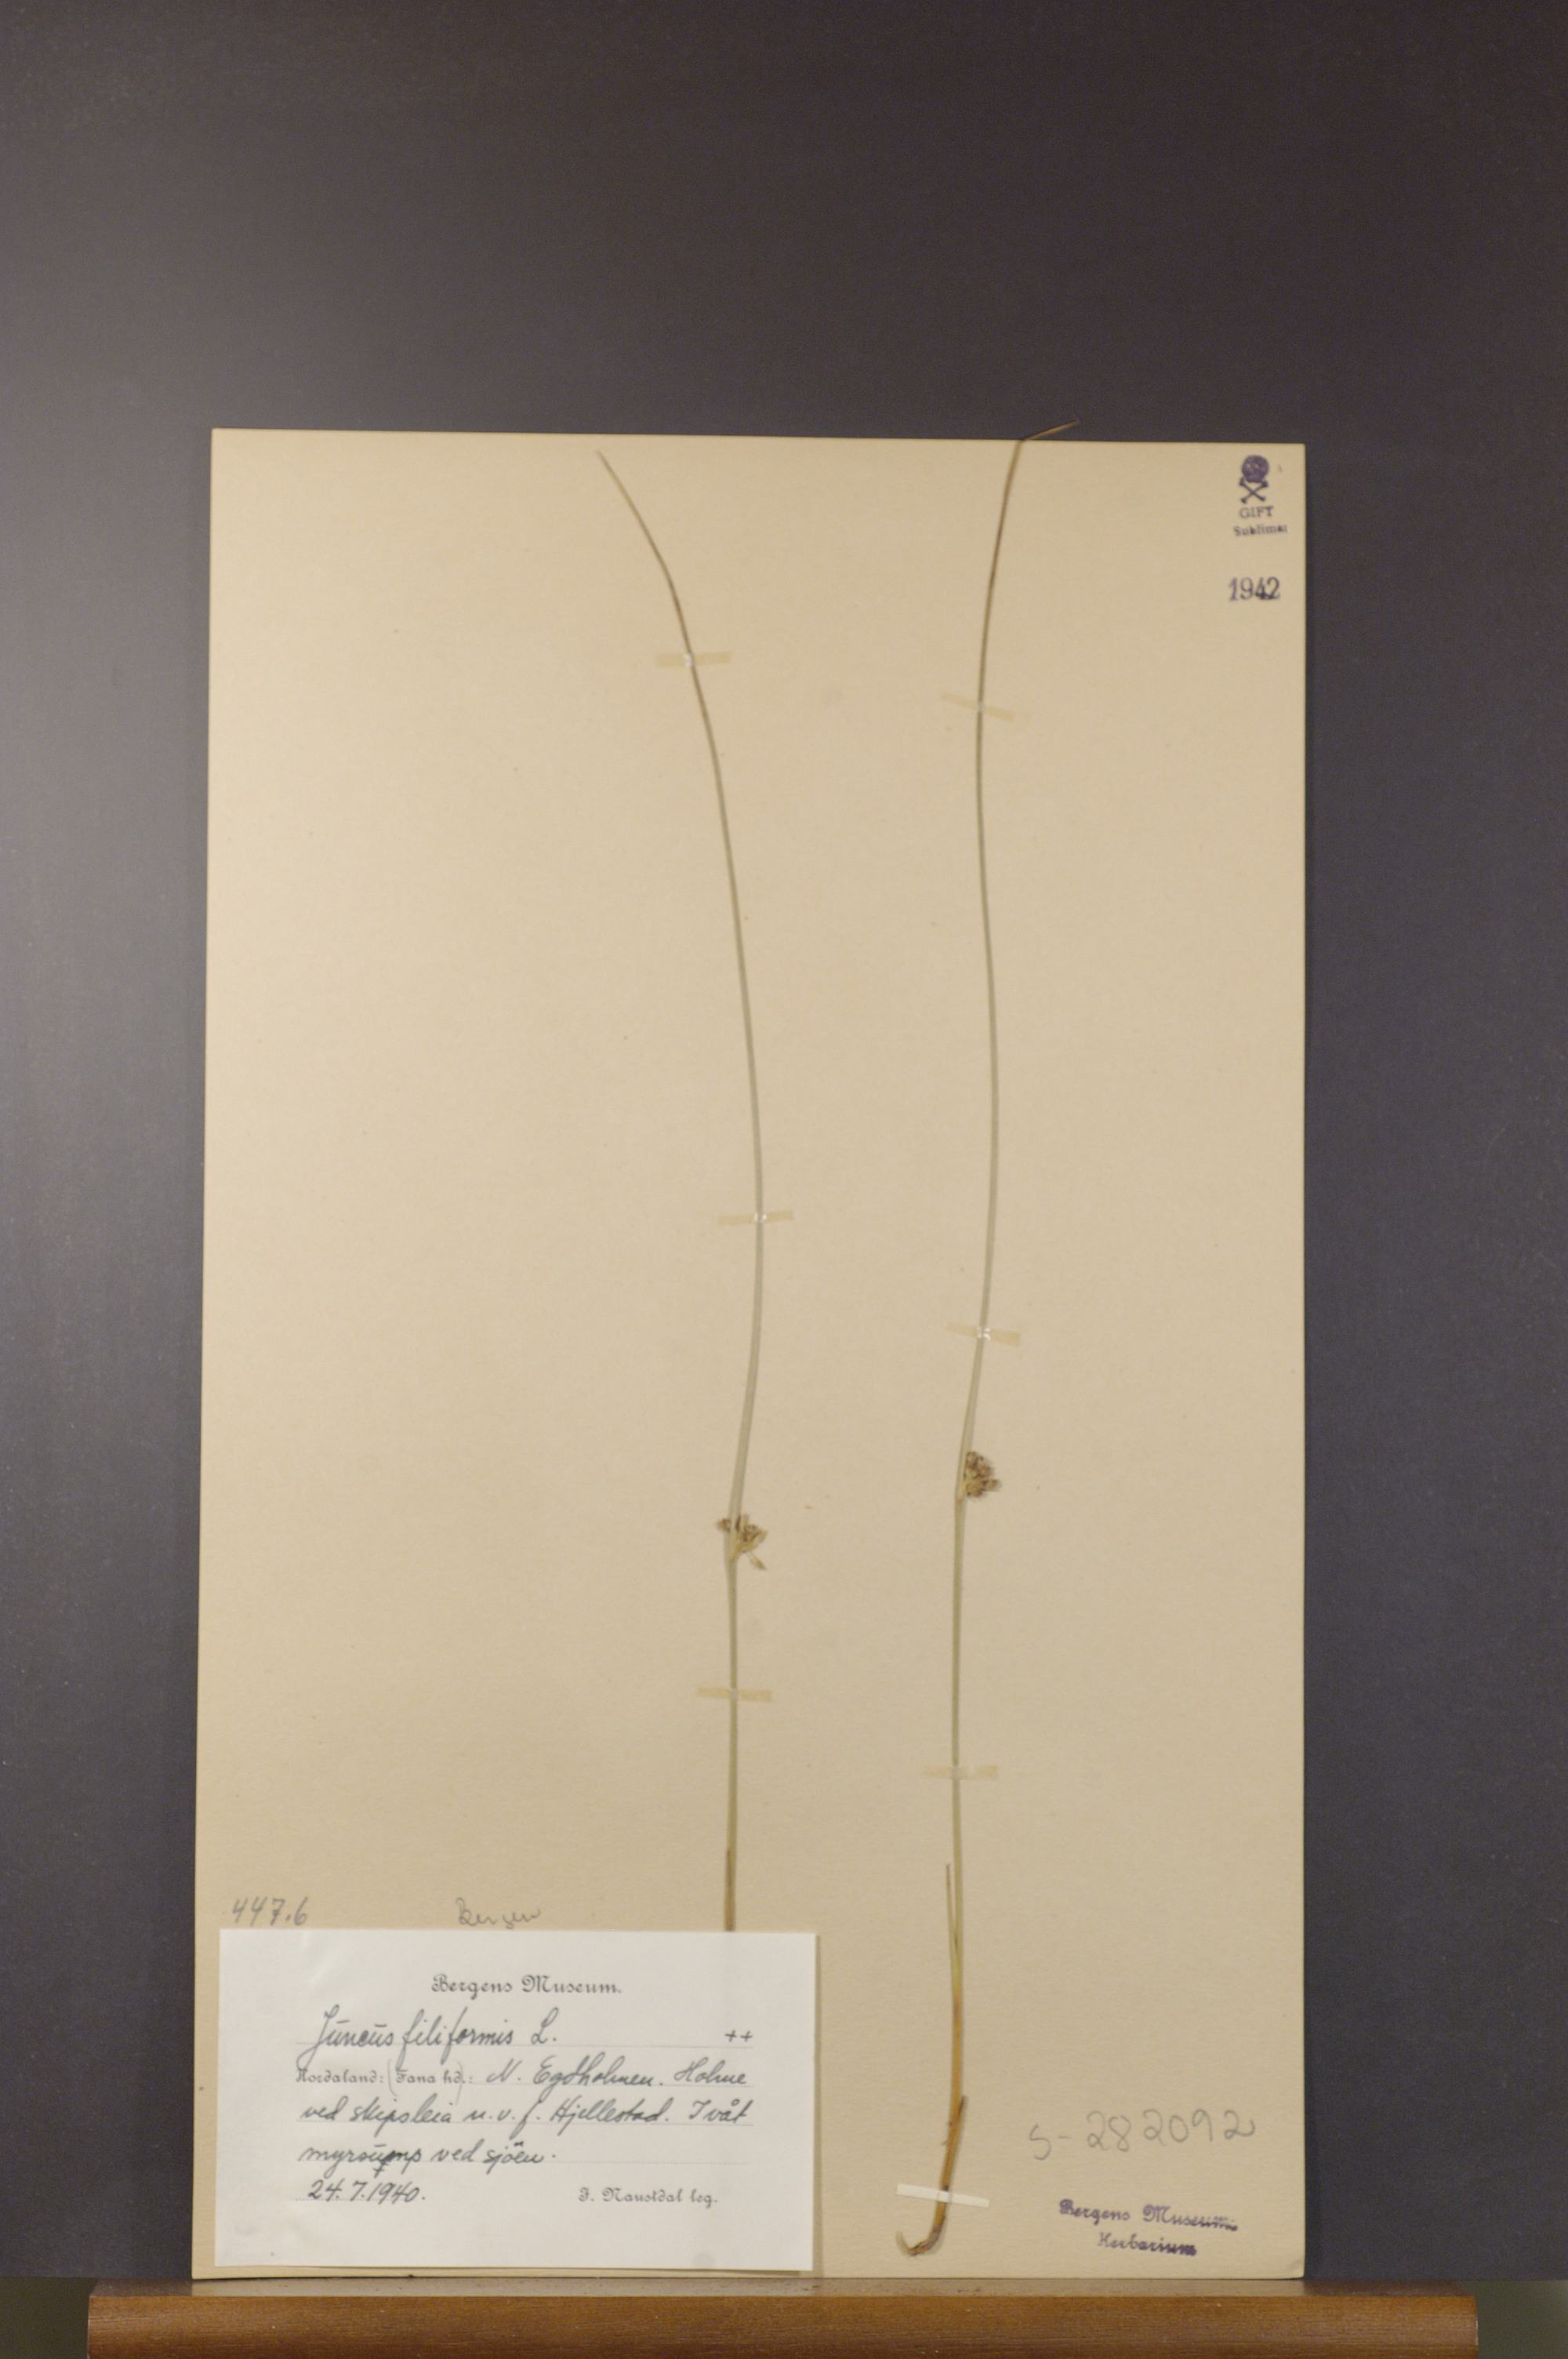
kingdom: Plantae
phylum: Tracheophyta
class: Liliopsida
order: Poales
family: Juncaceae
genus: Juncus
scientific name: Juncus filiformis
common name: Thread rush
